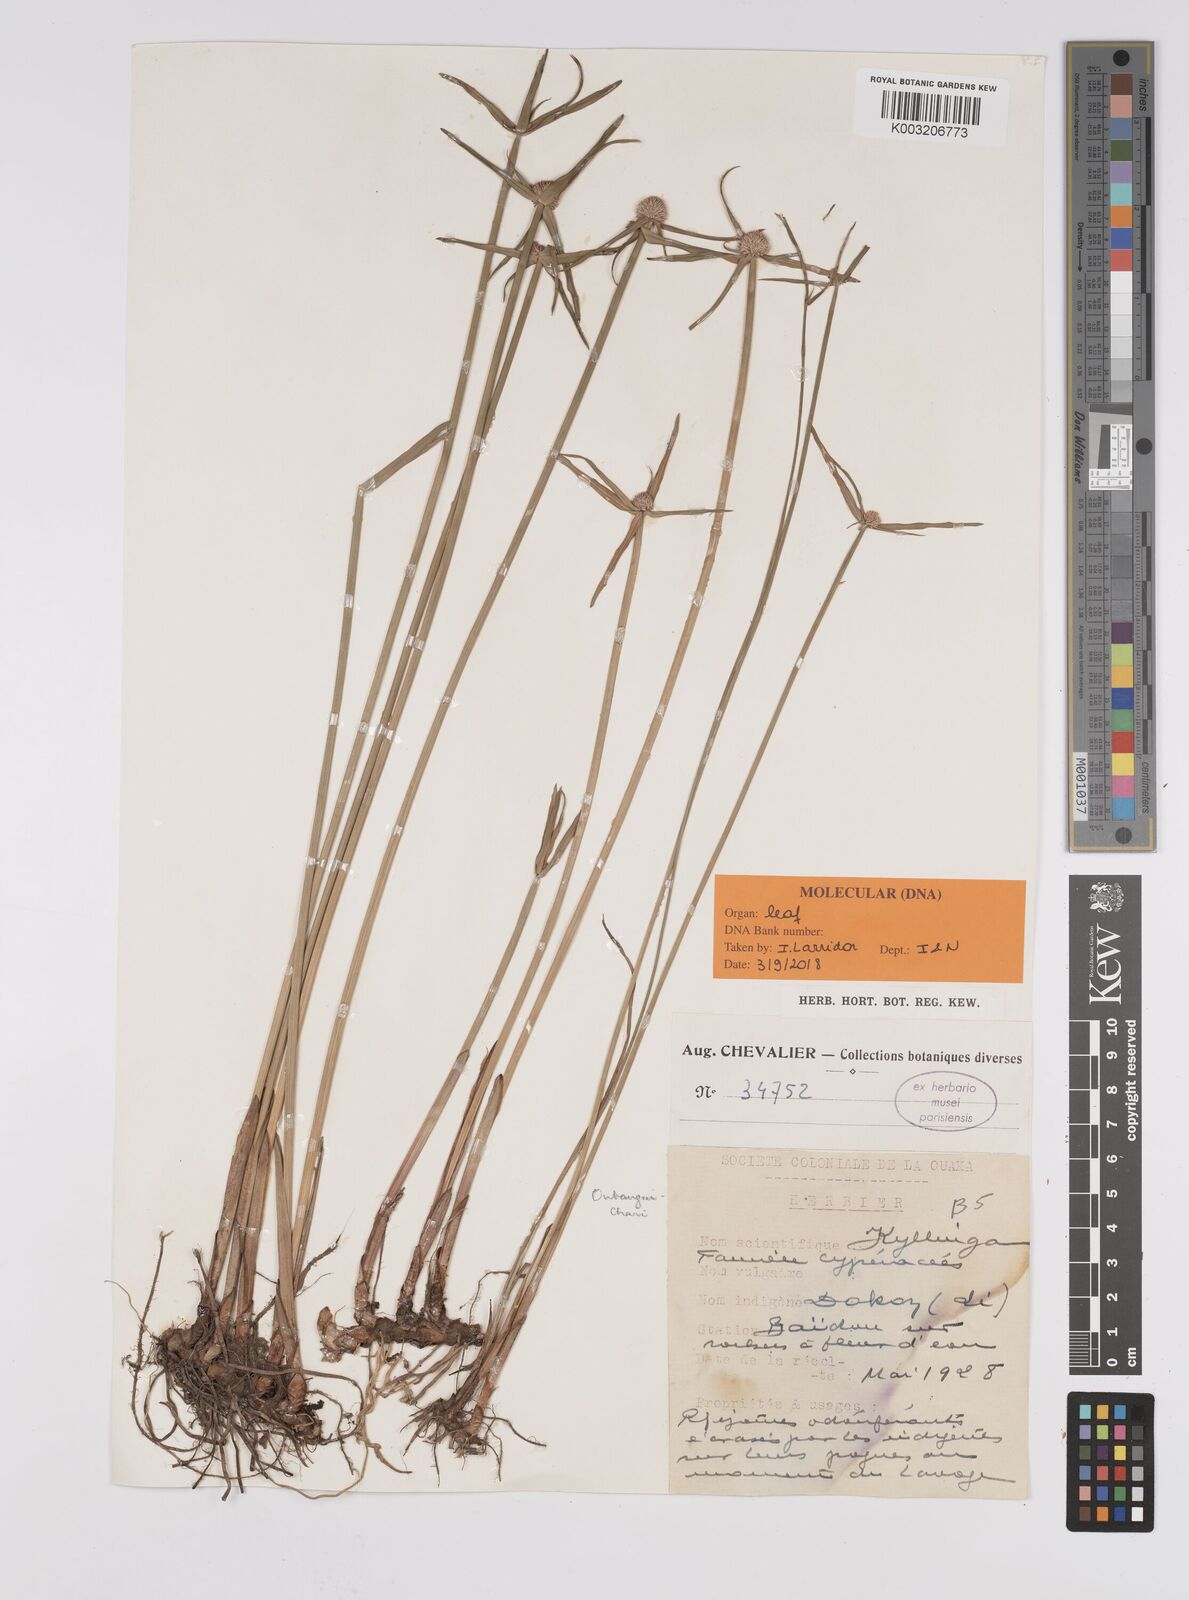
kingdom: Plantae
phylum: Tracheophyta
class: Liliopsida
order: Poales
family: Cyperaceae
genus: Cyperus
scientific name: Cyperus
